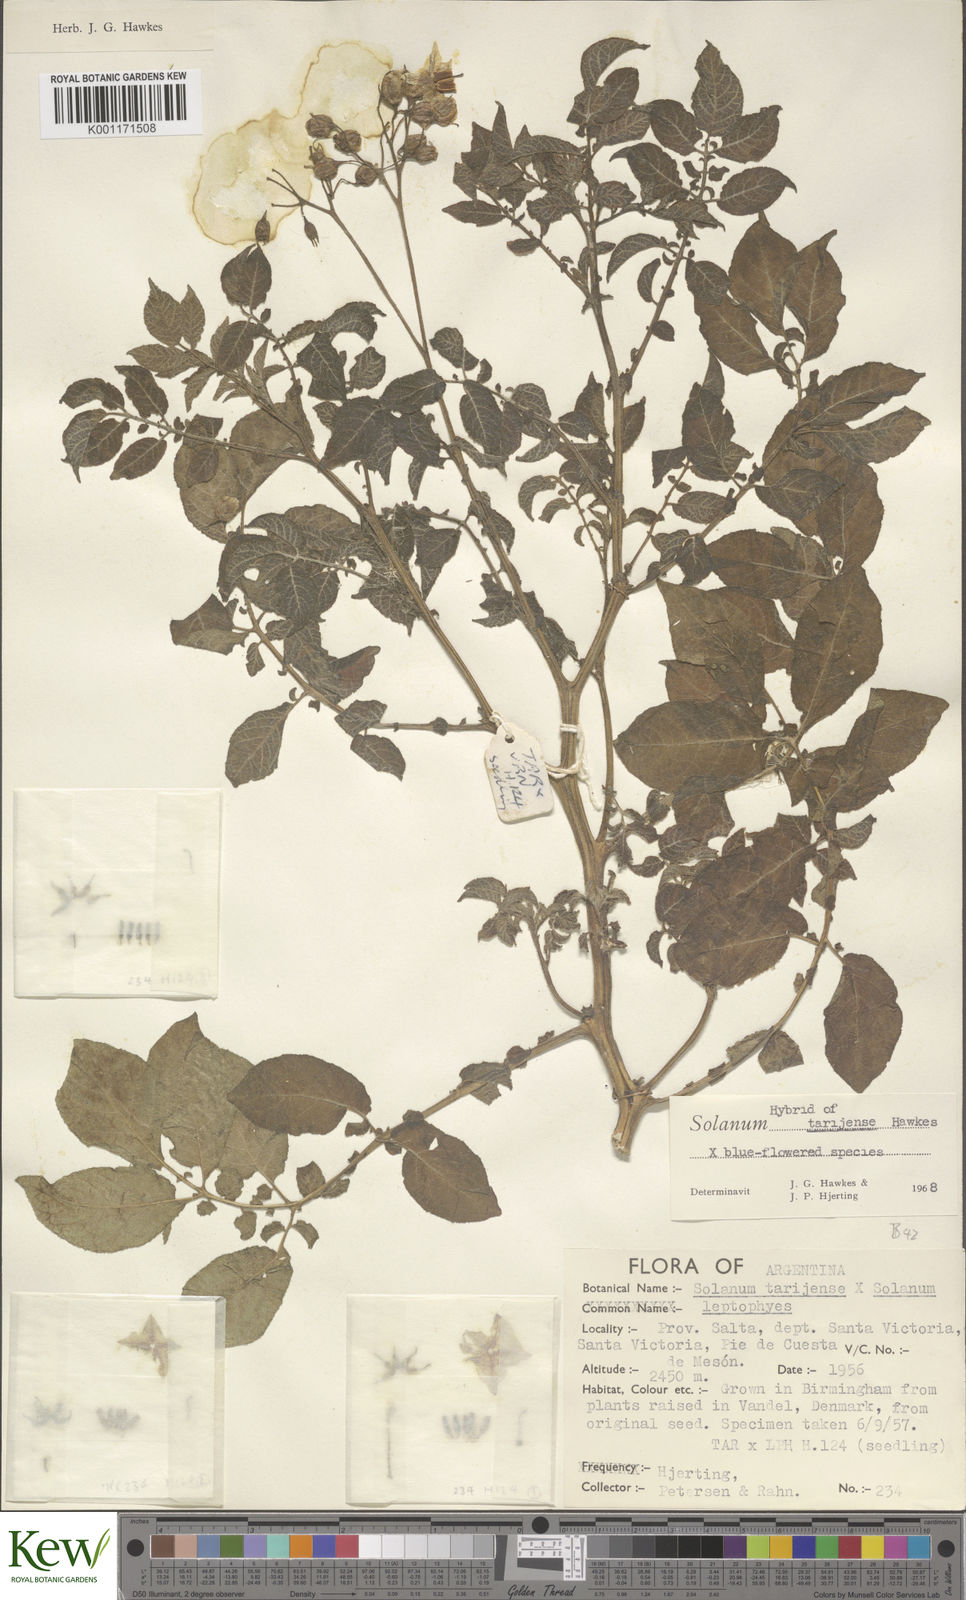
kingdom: Plantae
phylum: Tracheophyta
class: Magnoliopsida
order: Solanales
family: Solanaceae
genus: Solanum
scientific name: Solanum tarijense
